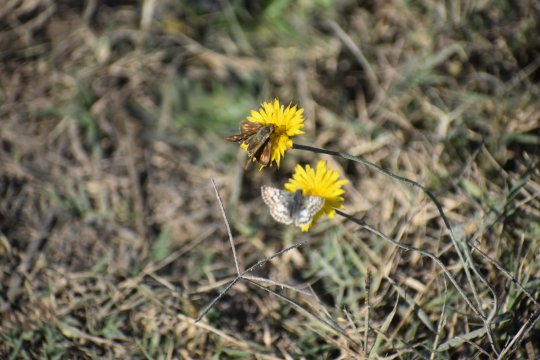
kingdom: Animalia
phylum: Arthropoda
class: Insecta
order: Lepidoptera
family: Hesperiidae
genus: Hylephila
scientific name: Hylephila phyleus
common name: Fiery Skipper
